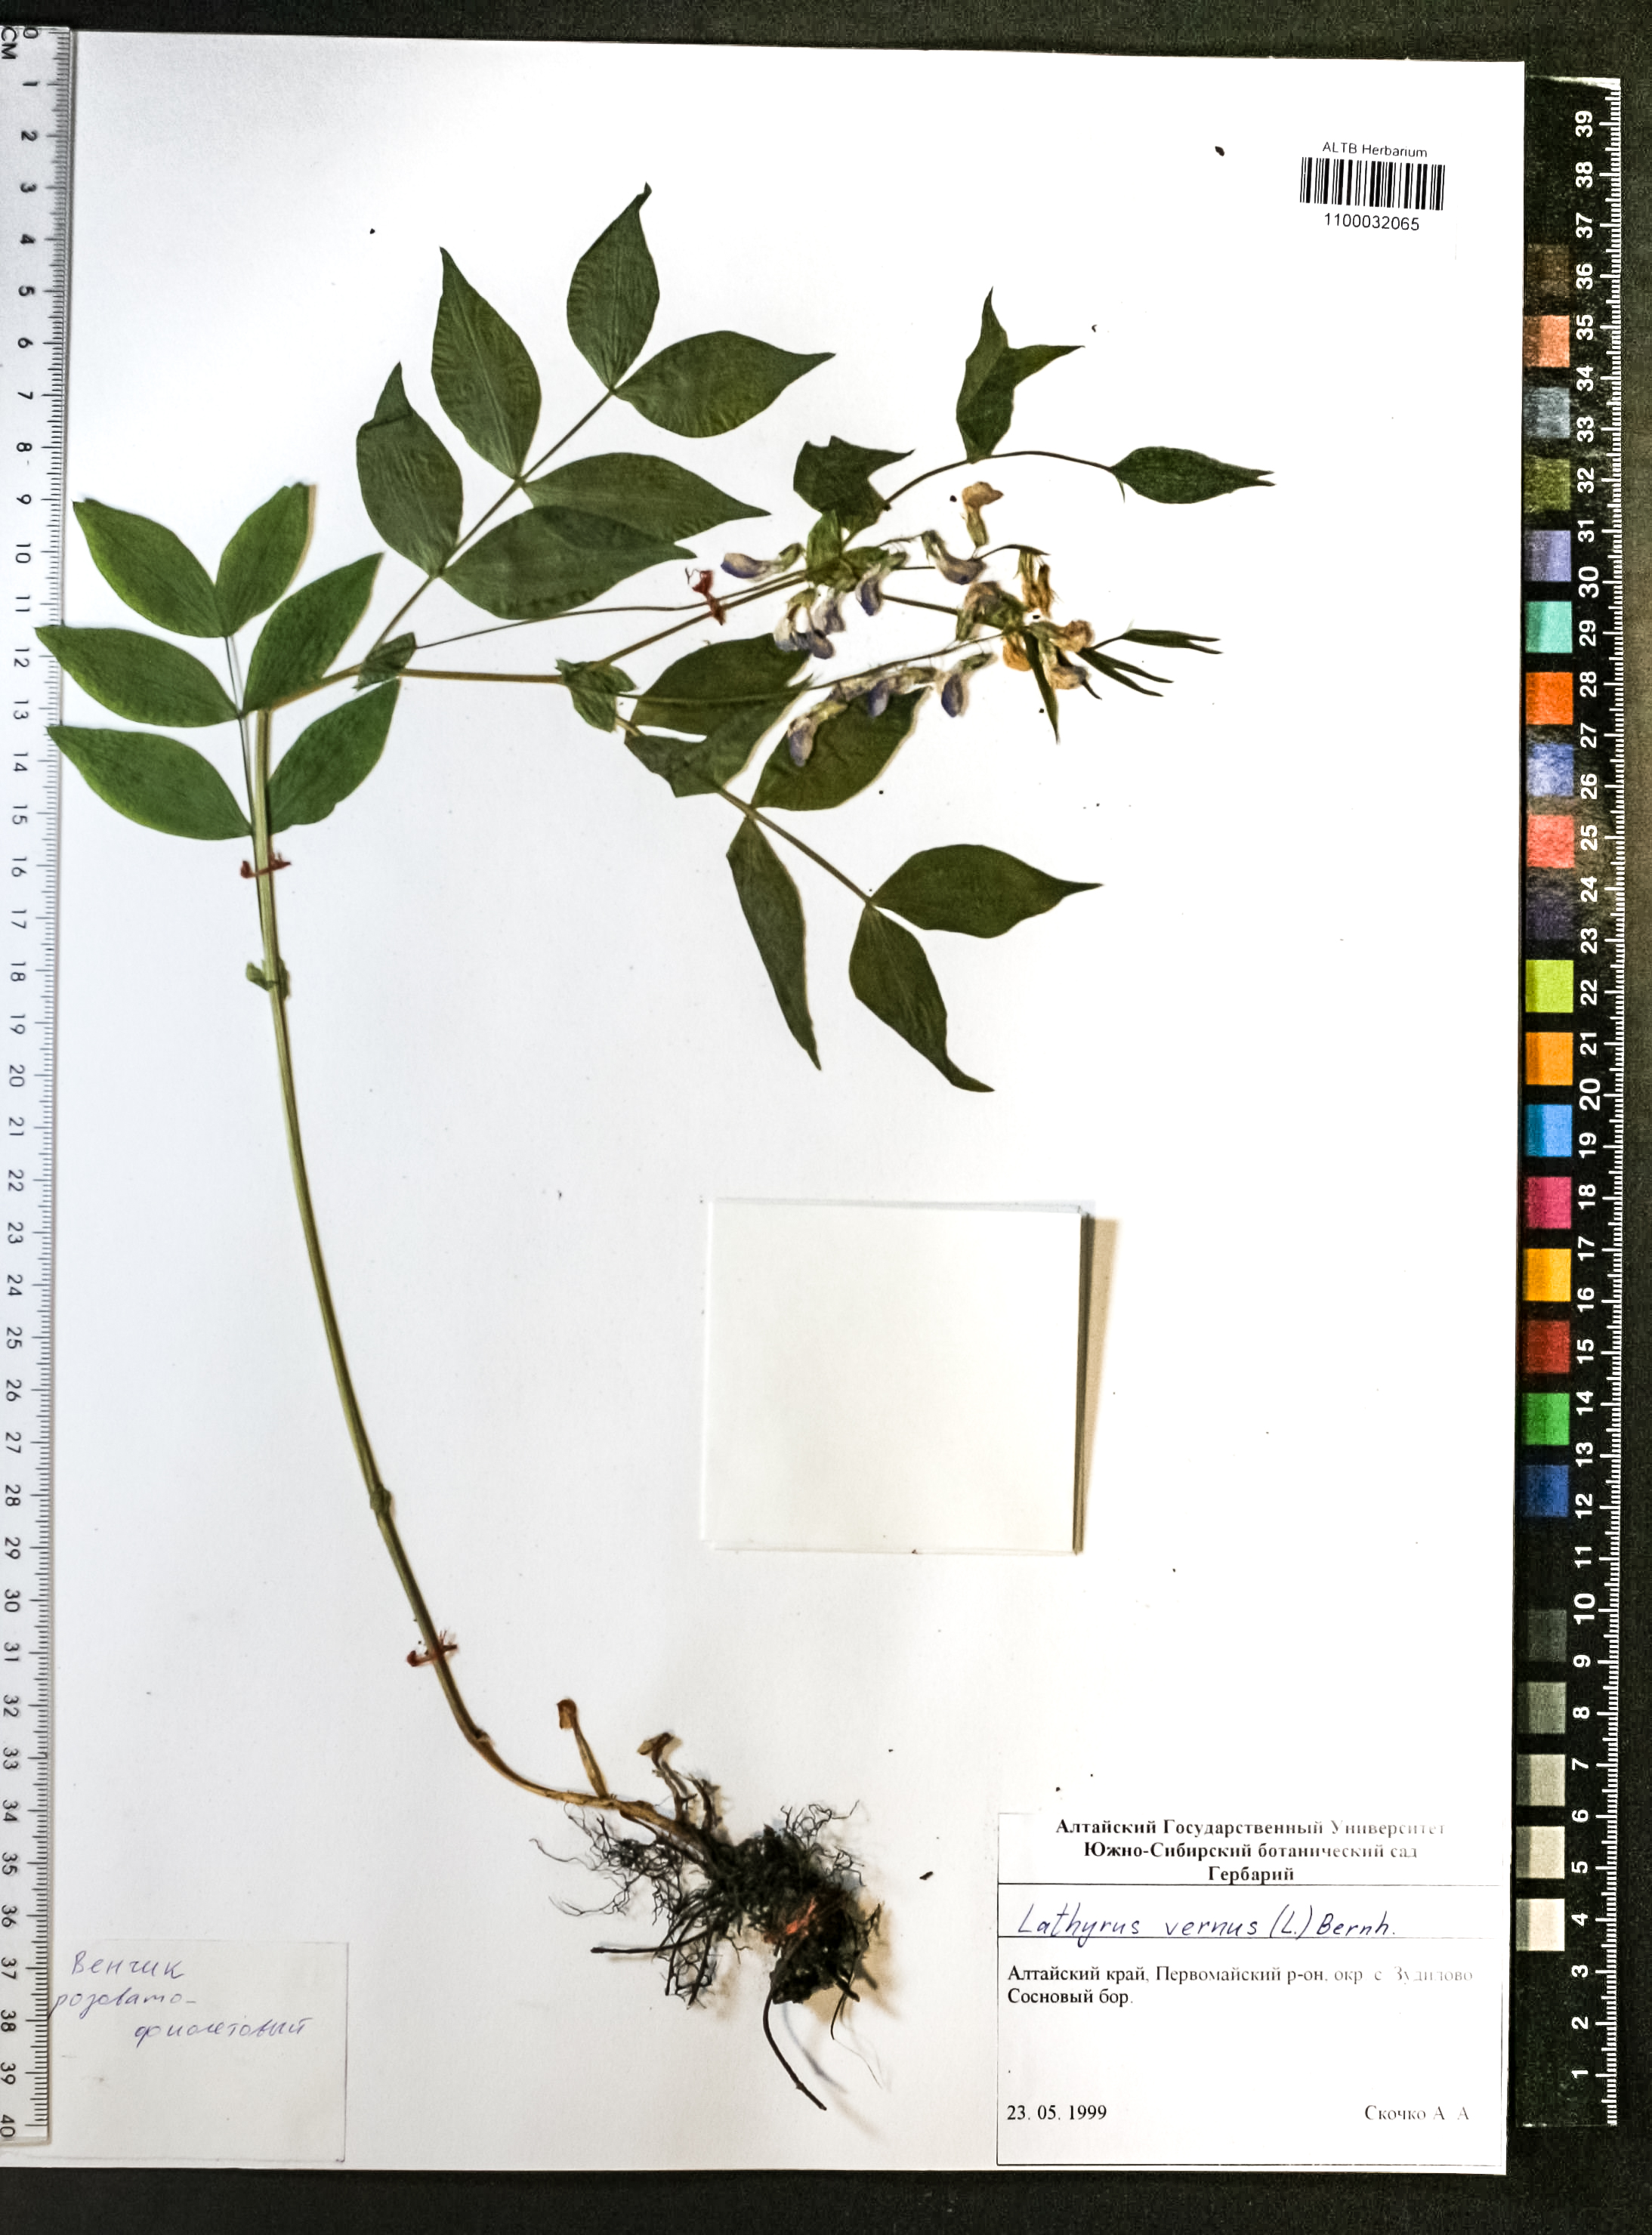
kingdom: Plantae
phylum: Tracheophyta
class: Magnoliopsida
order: Fabales
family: Fabaceae
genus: Lathyrus
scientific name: Lathyrus vernus
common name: Spring pea
